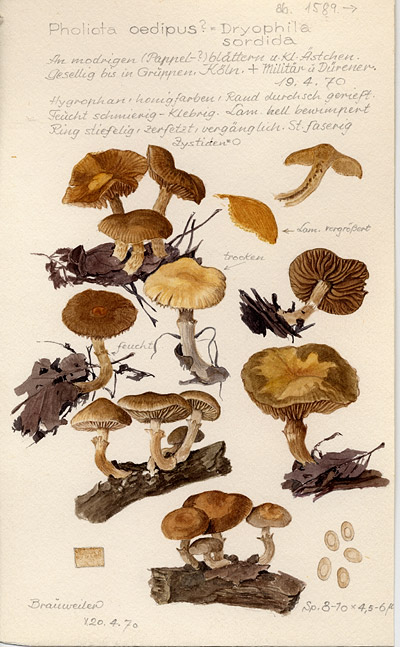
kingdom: Fungi
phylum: Basidiomycota
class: Agaricomycetes
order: Agaricales
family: Strophariaceae
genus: Meottomyces
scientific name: Meottomyces dissimulans
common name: Winter brownie
